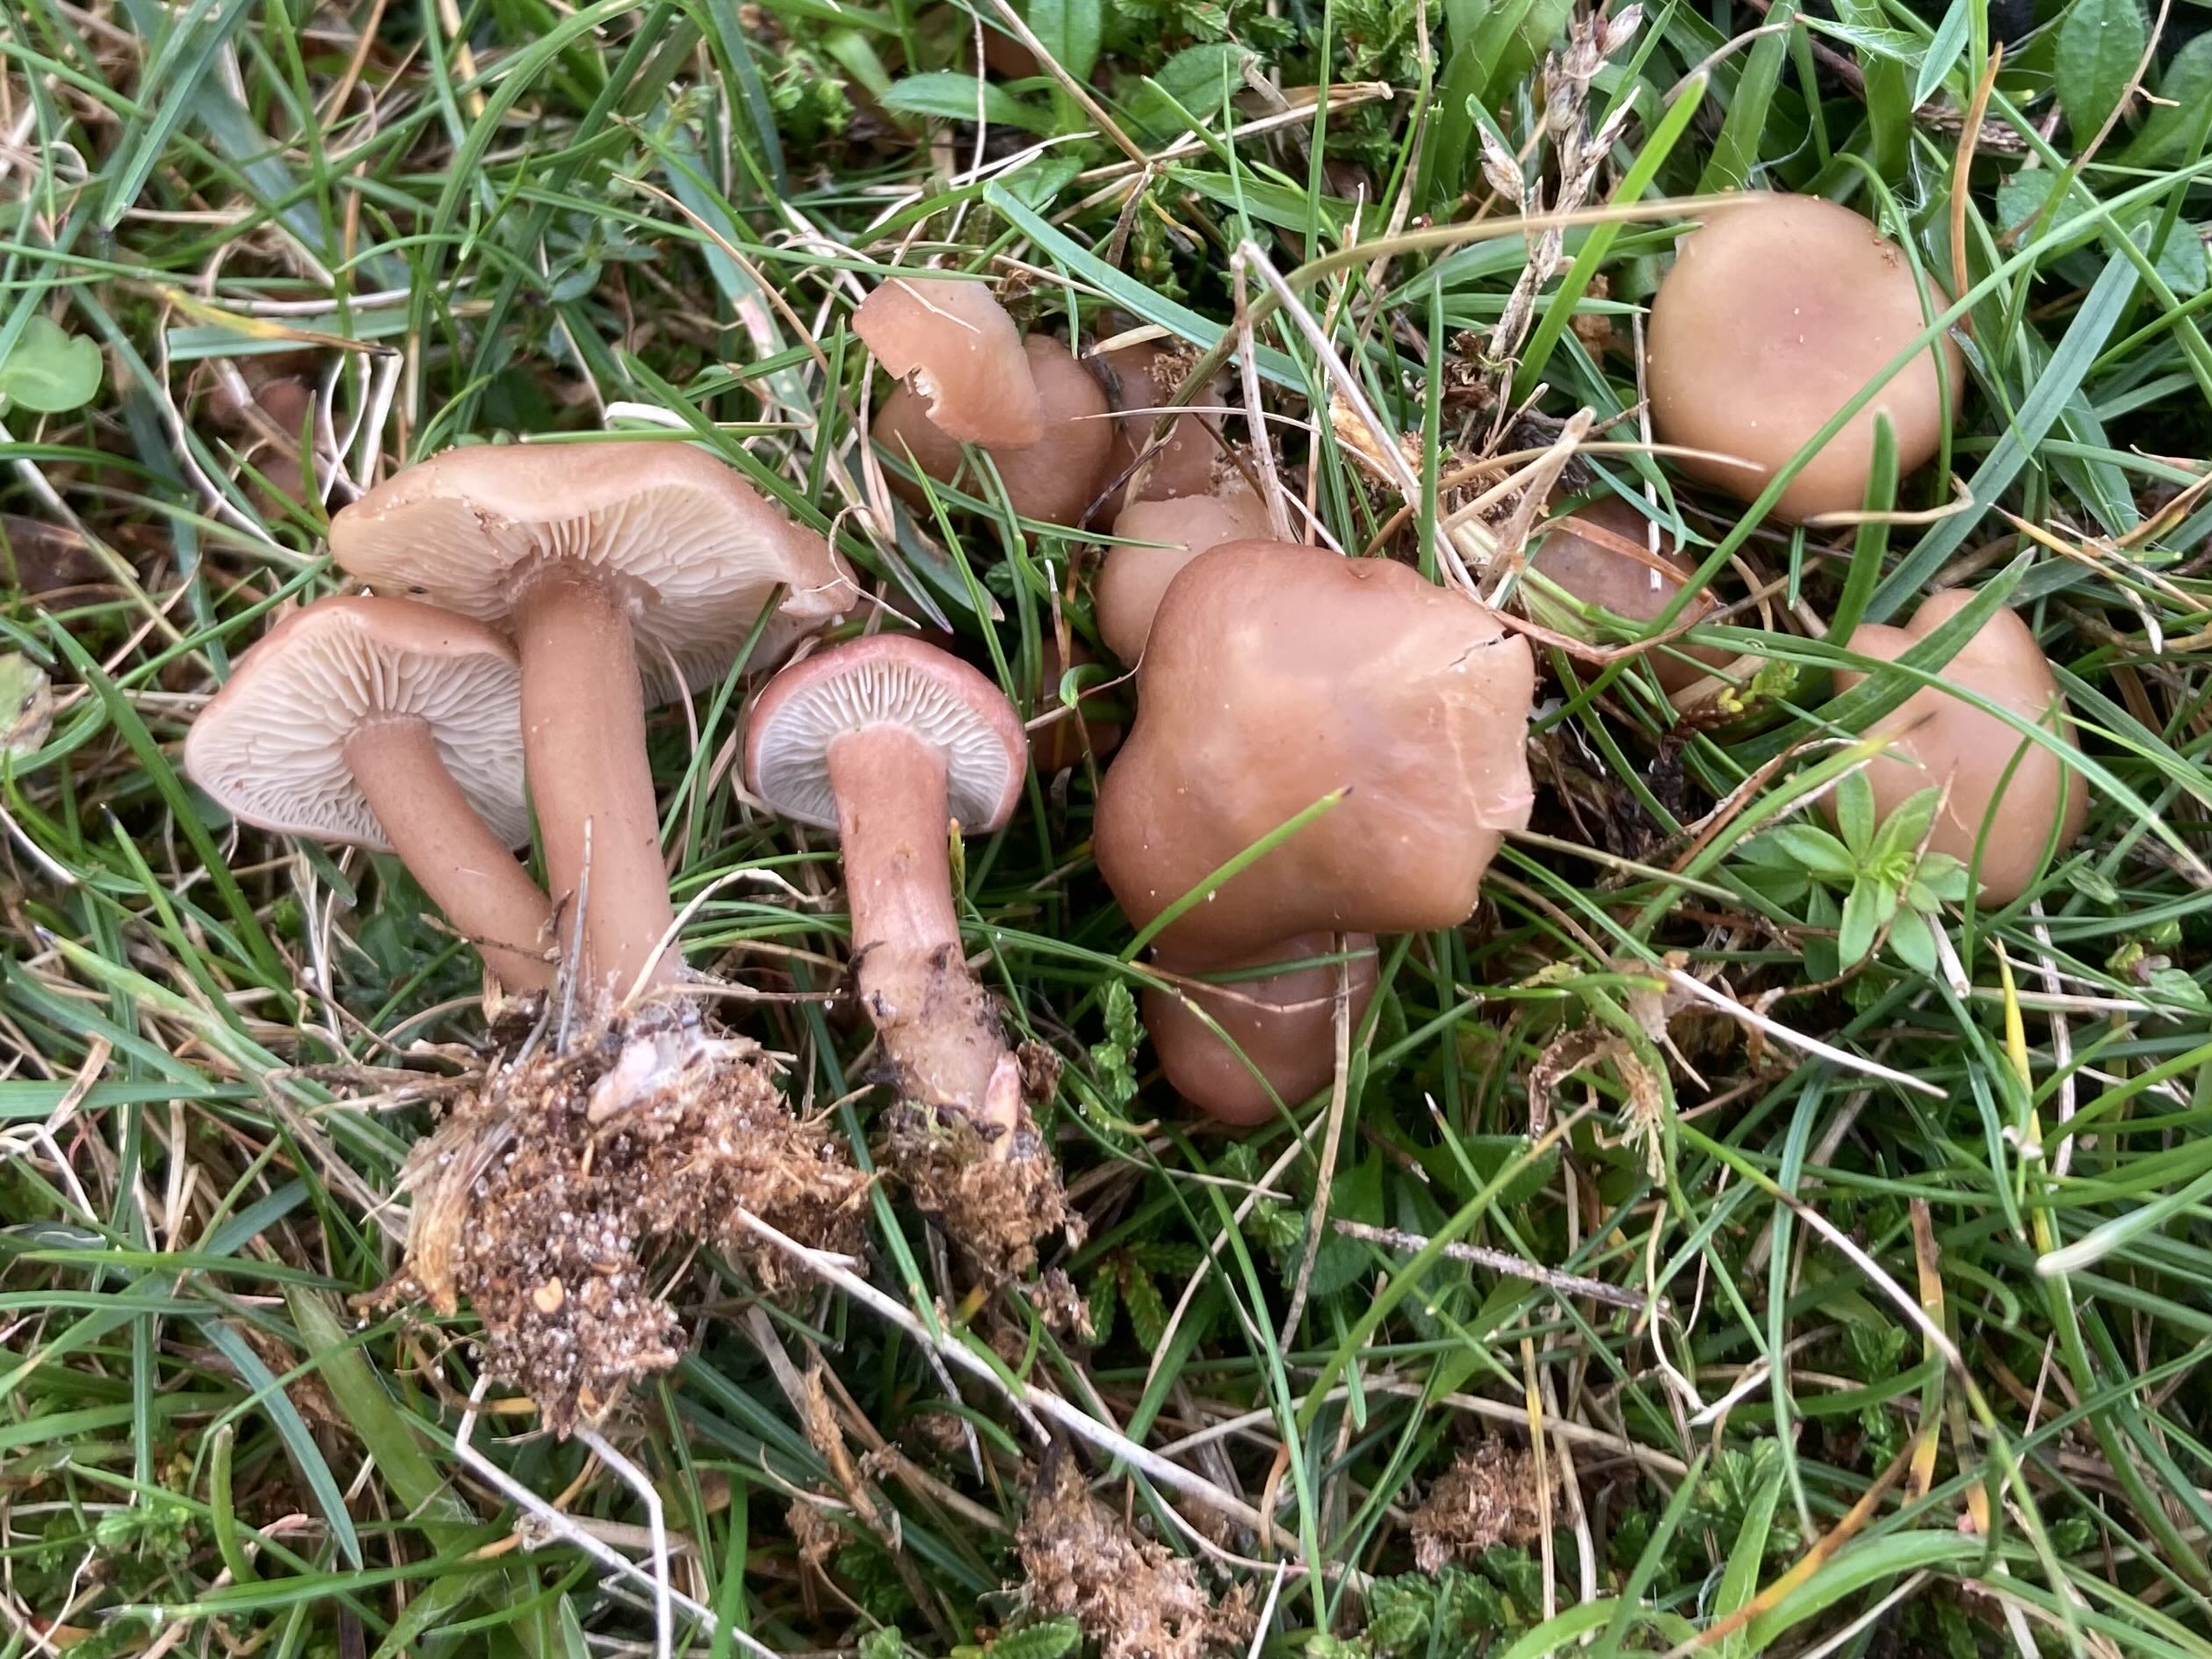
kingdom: Fungi
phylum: Basidiomycota
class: Agaricomycetes
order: Agaricales
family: Lyophyllaceae
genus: Calocybe
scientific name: Calocybe carnea
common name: rosa fagerhat
